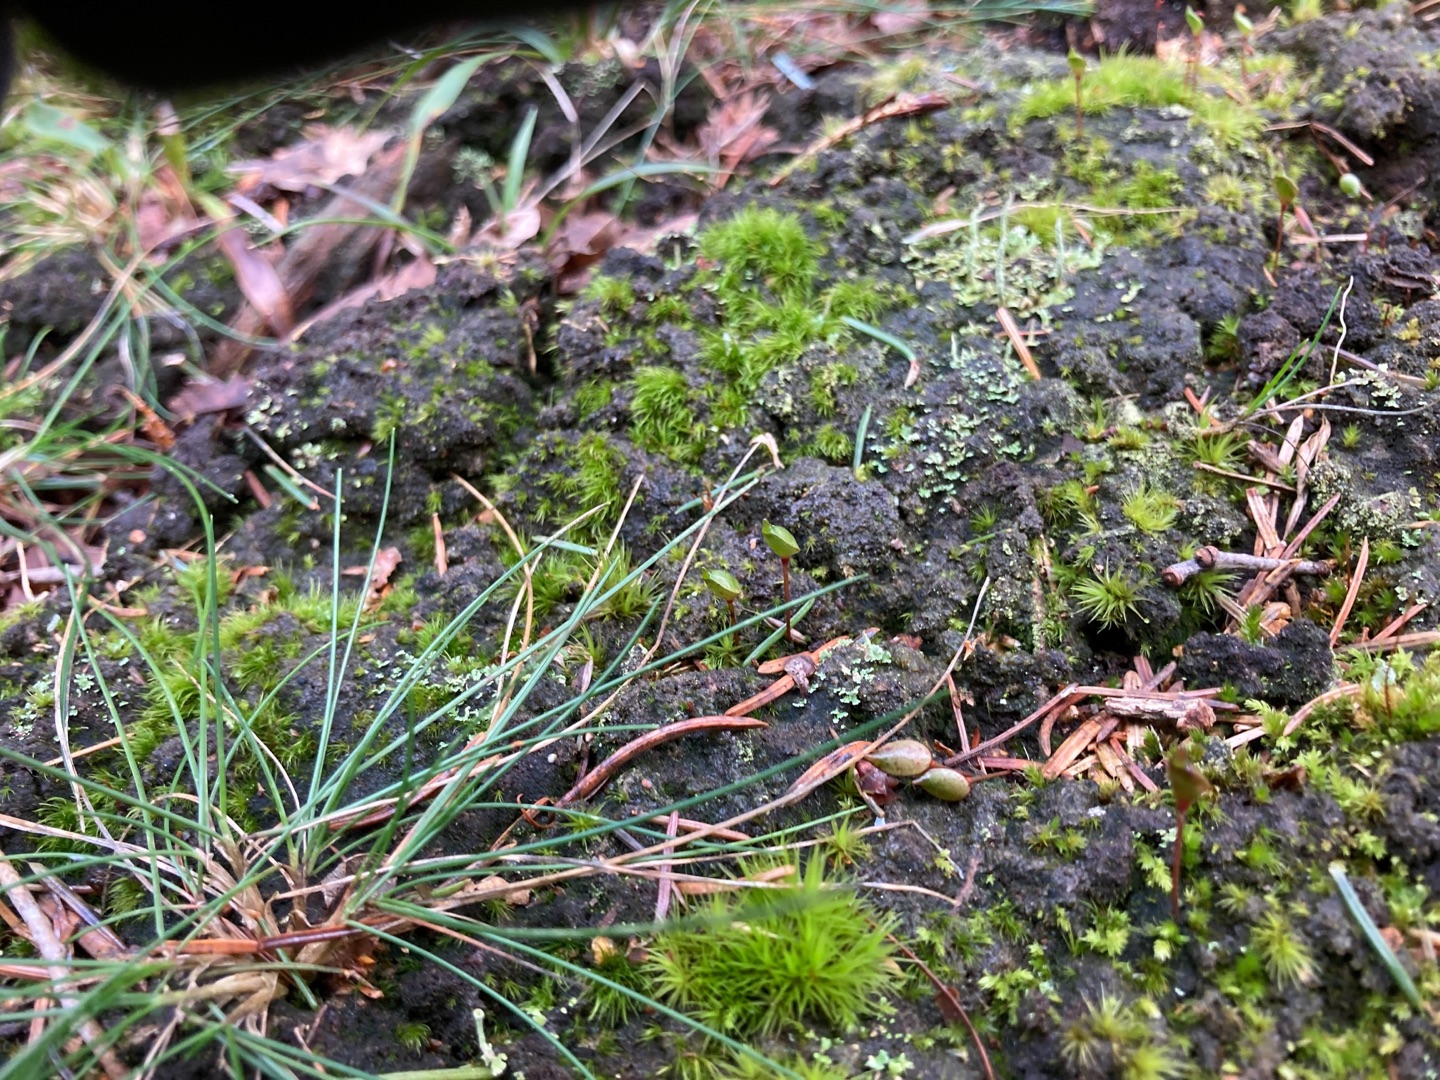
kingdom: Plantae
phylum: Bryophyta
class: Bryopsida
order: Buxbaumiales
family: Buxbaumiaceae
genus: Buxbaumia
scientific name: Buxbaumia aphylla
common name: Rundkapslet buxbaumia
